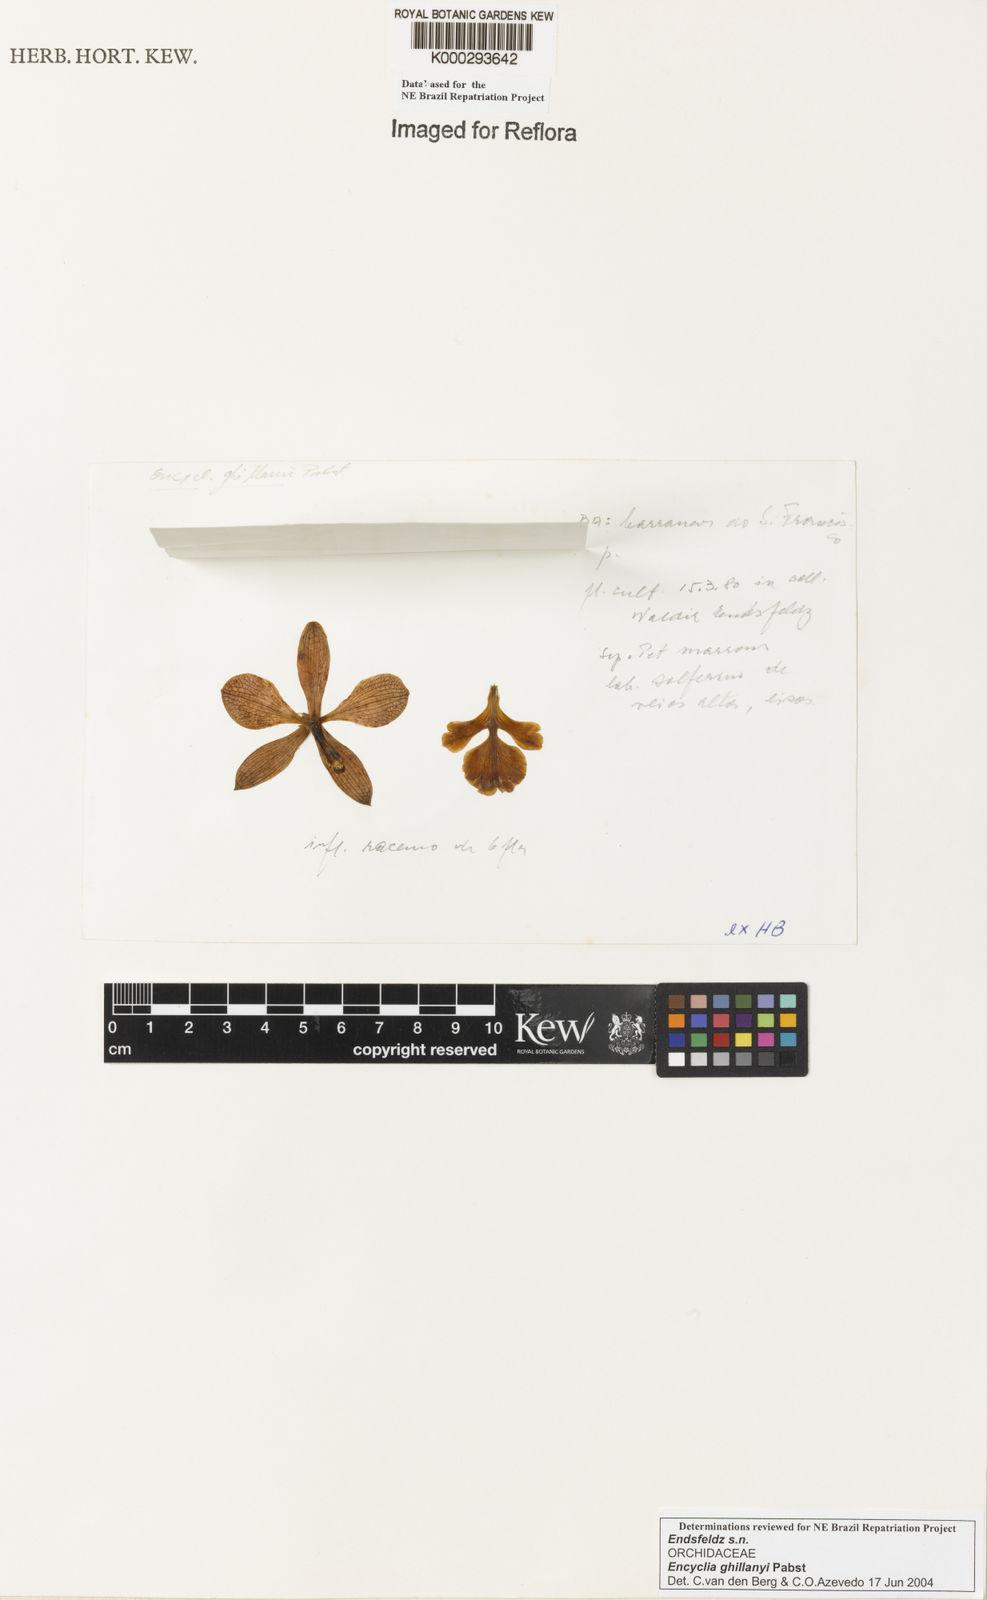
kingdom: Plantae
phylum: Tracheophyta
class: Liliopsida
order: Asparagales
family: Orchidaceae
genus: Encyclia
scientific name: Encyclia jenischiana
